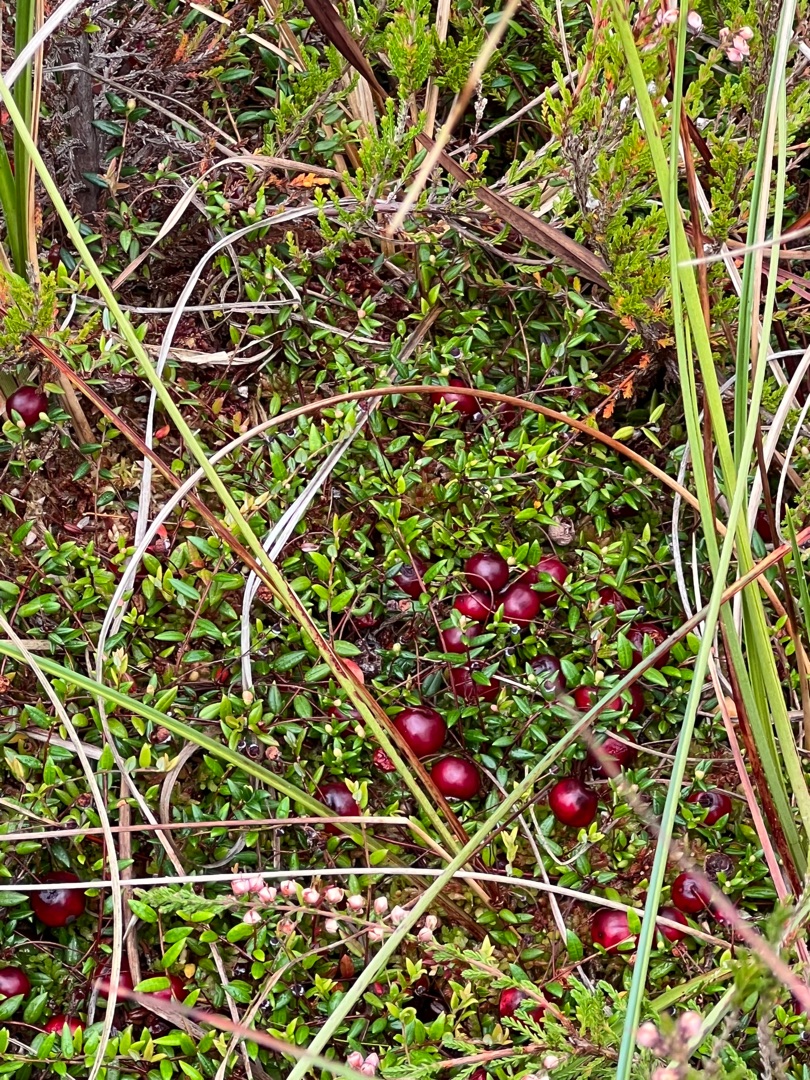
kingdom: Plantae
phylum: Tracheophyta
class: Magnoliopsida
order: Ericales
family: Ericaceae
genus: Vaccinium
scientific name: Vaccinium oxycoccos
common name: Tranebær
